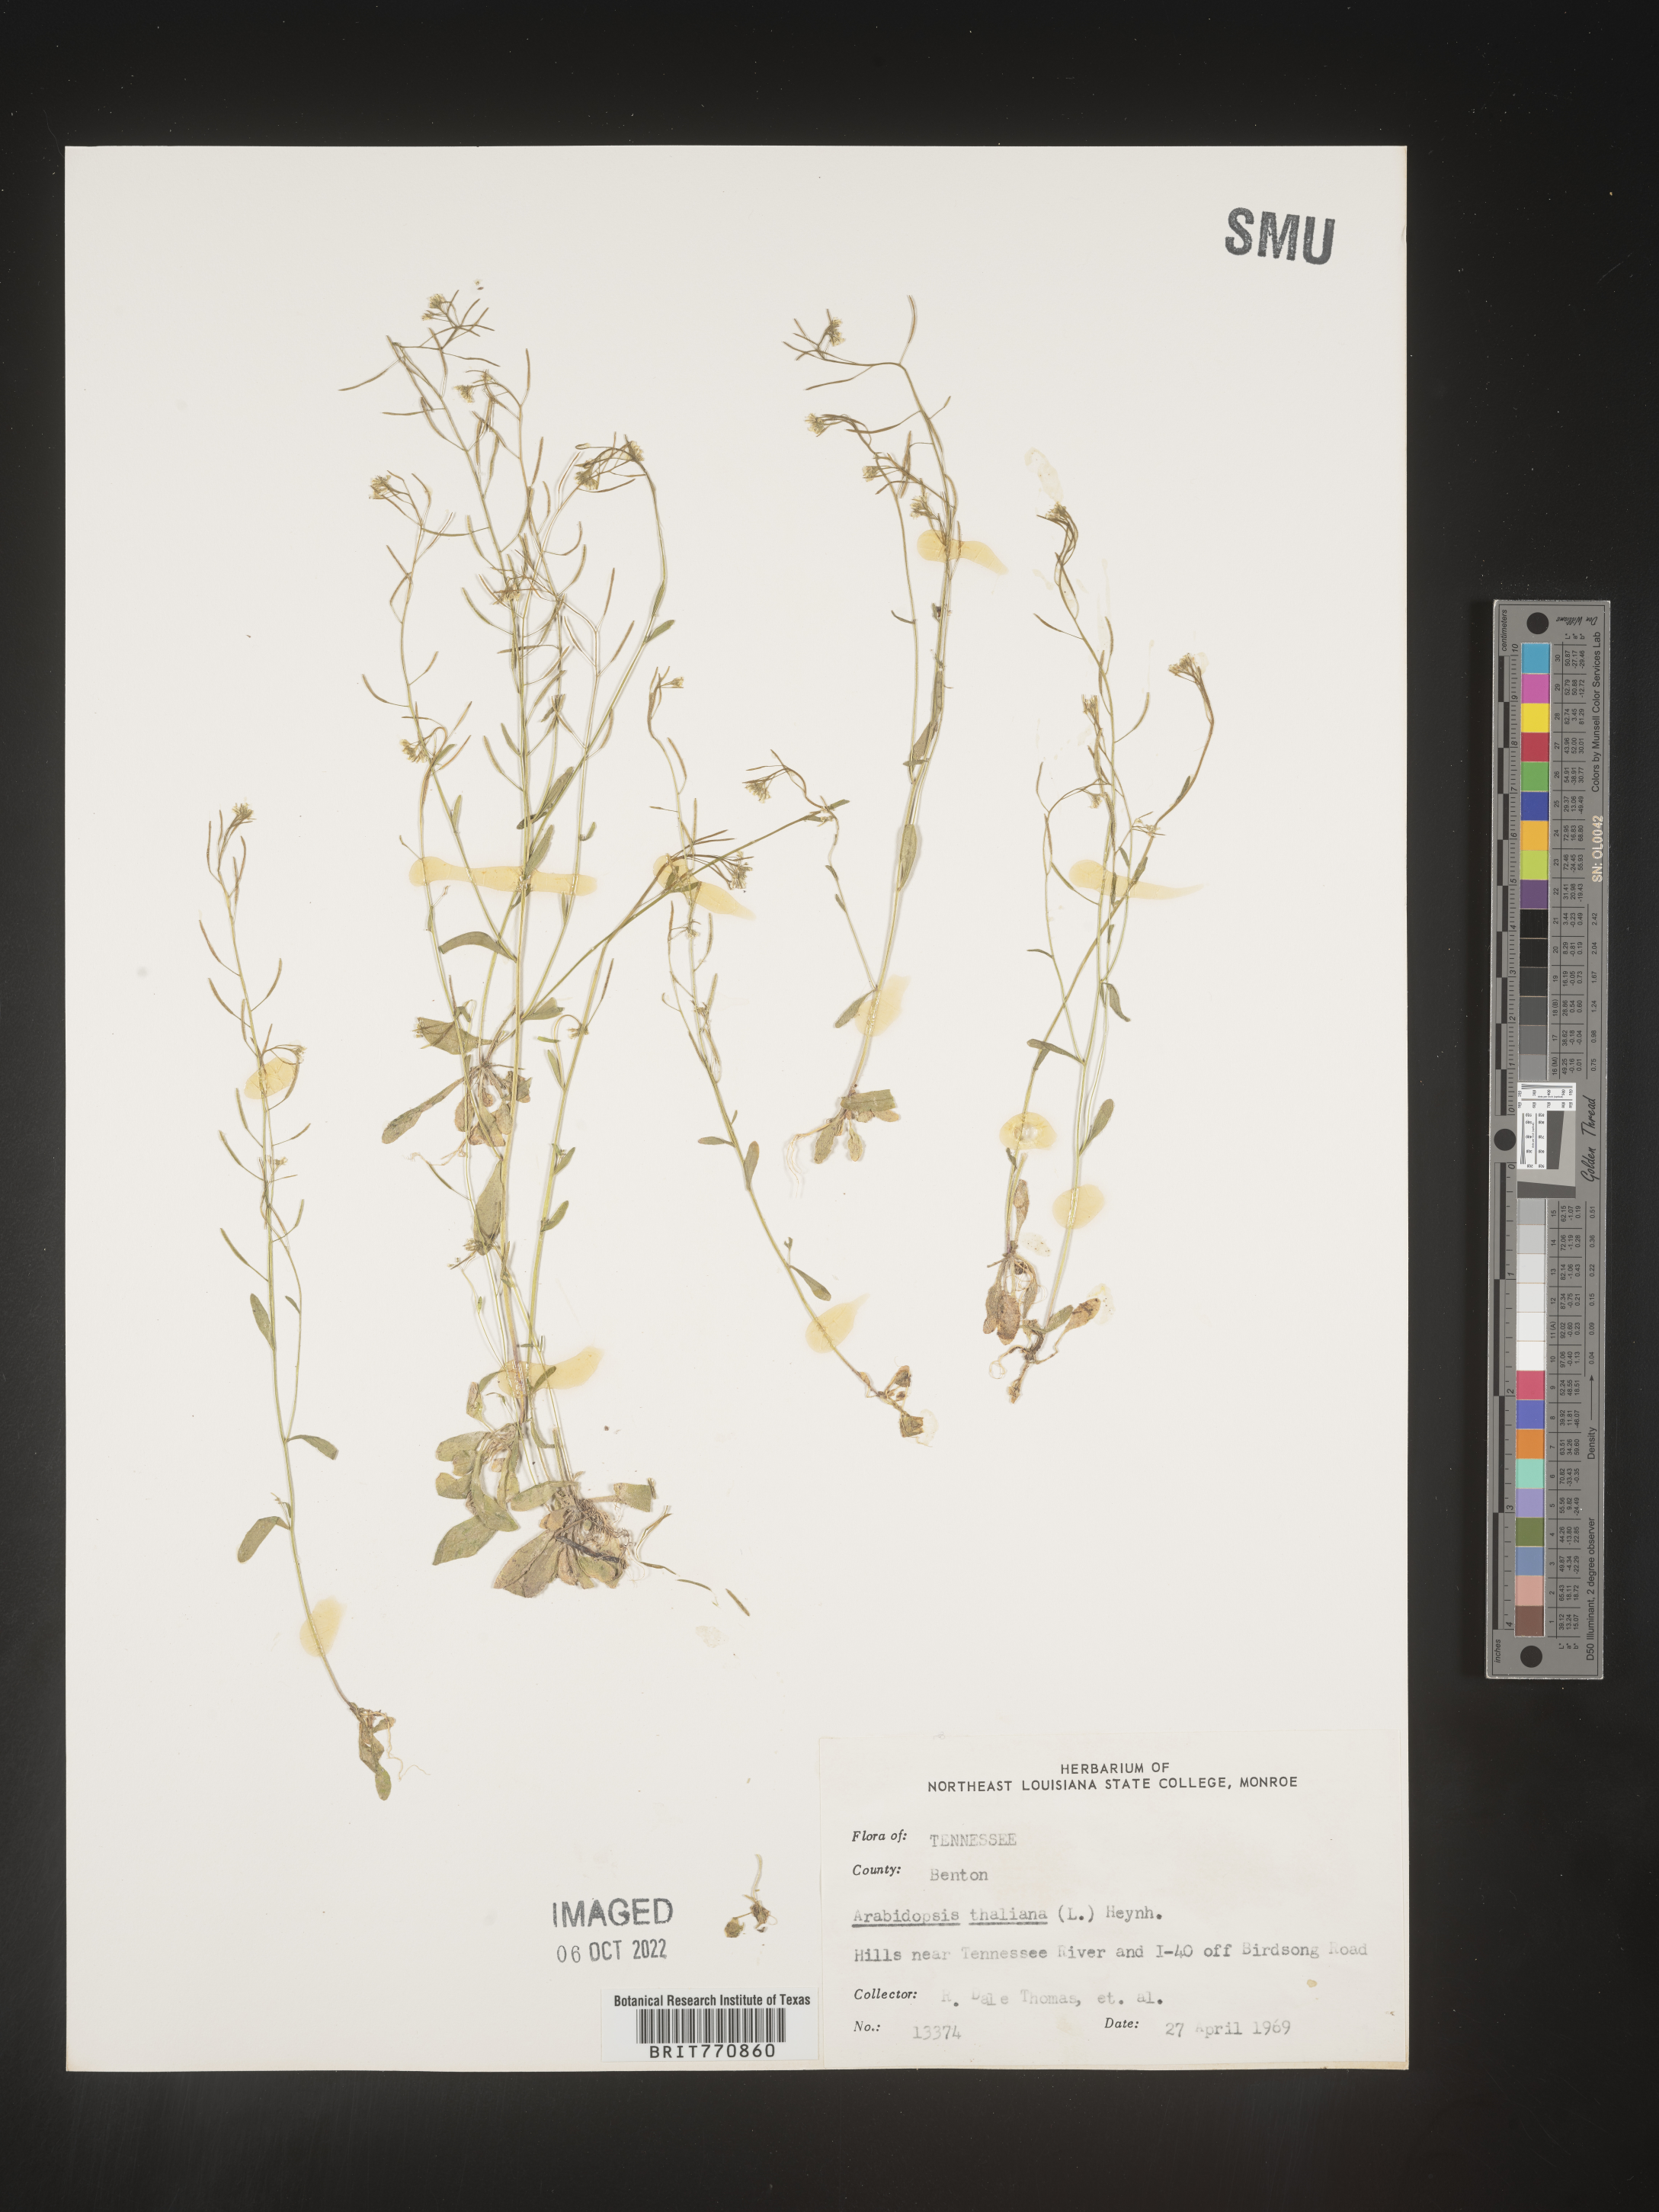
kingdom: Plantae
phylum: Tracheophyta
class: Magnoliopsida
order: Brassicales
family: Brassicaceae
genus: Arabidopsis
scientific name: Arabidopsis thaliana
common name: Thale cress
